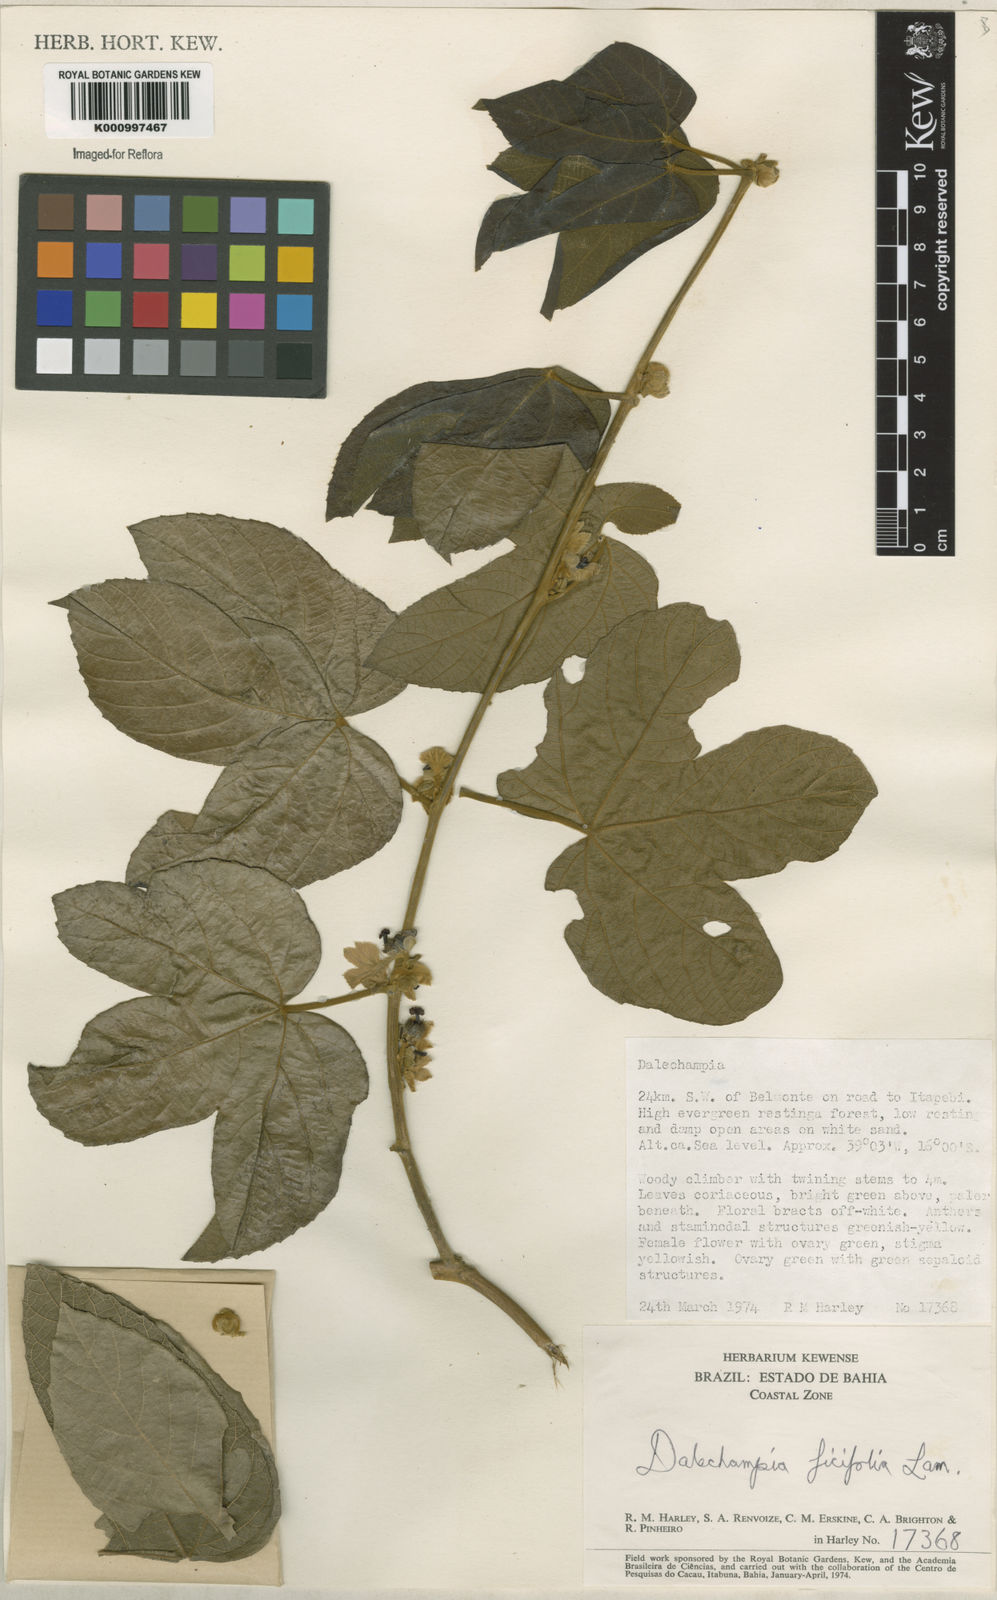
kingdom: Plantae
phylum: Tracheophyta
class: Magnoliopsida
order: Malpighiales
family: Euphorbiaceae
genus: Dalechampia
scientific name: Dalechampia ficifolia
